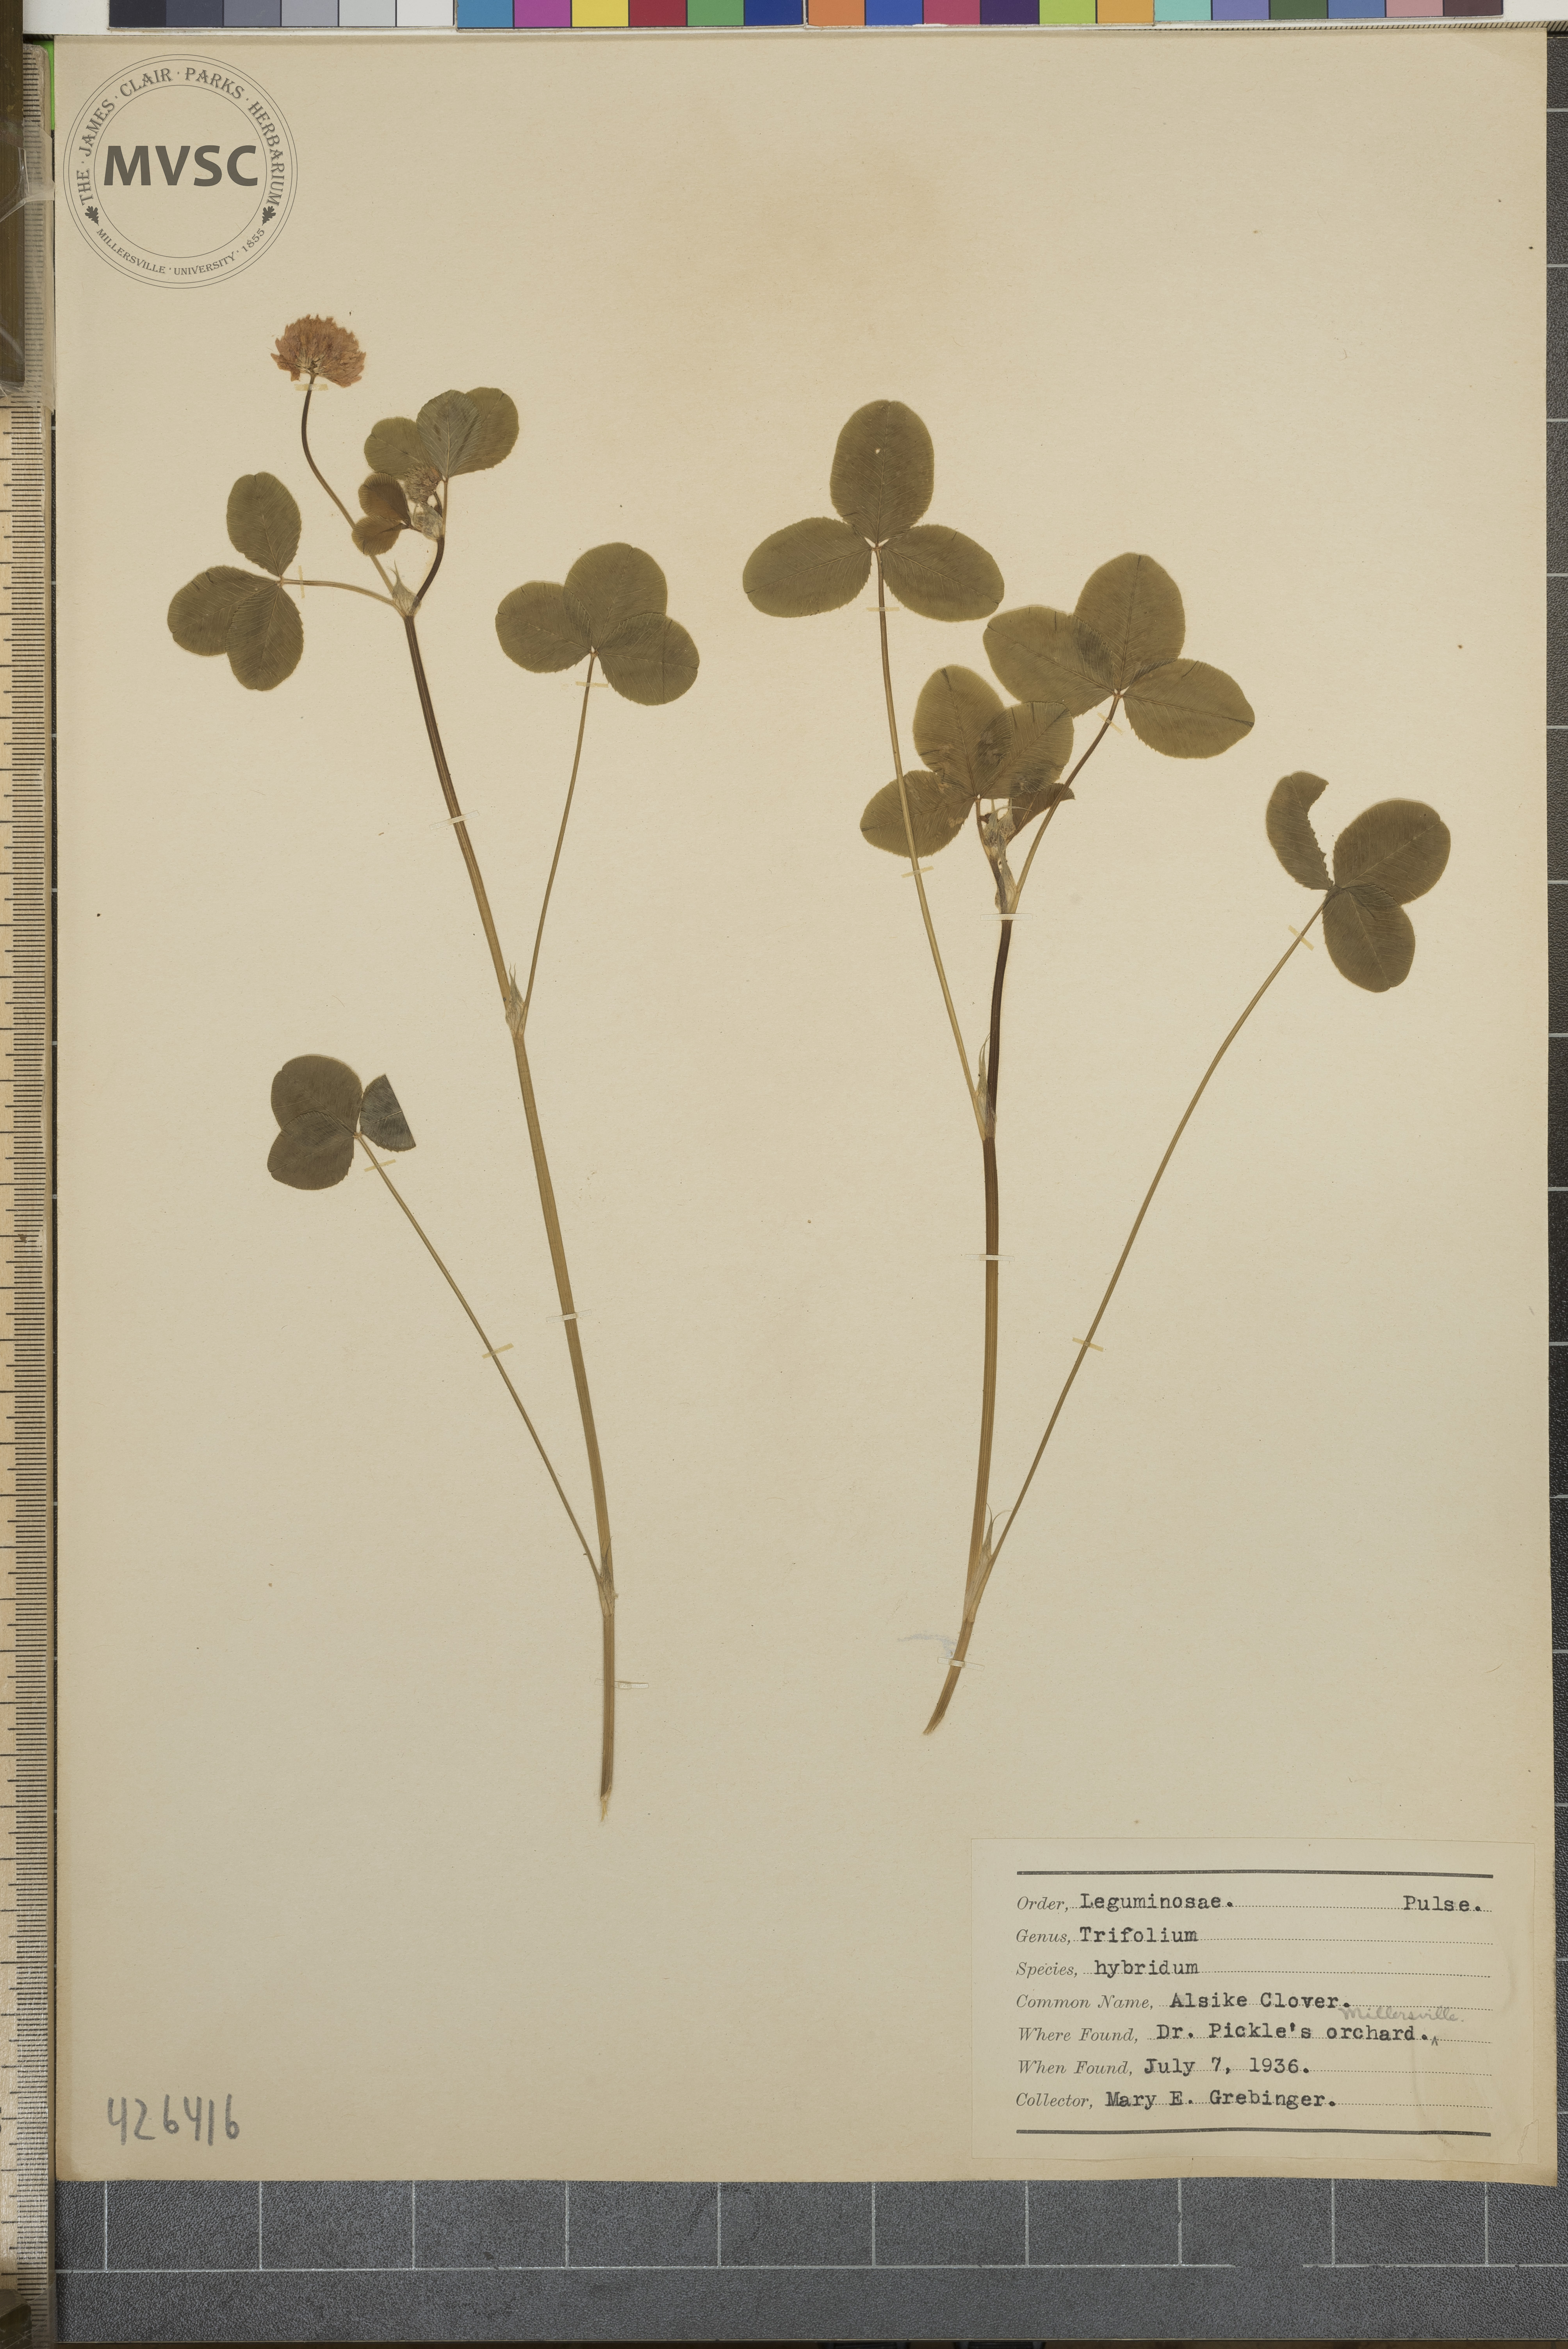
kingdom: Plantae
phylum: Tracheophyta
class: Magnoliopsida
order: Fabales
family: Fabaceae
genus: Trifolium
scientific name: Trifolium hybridum
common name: Alsike clover
